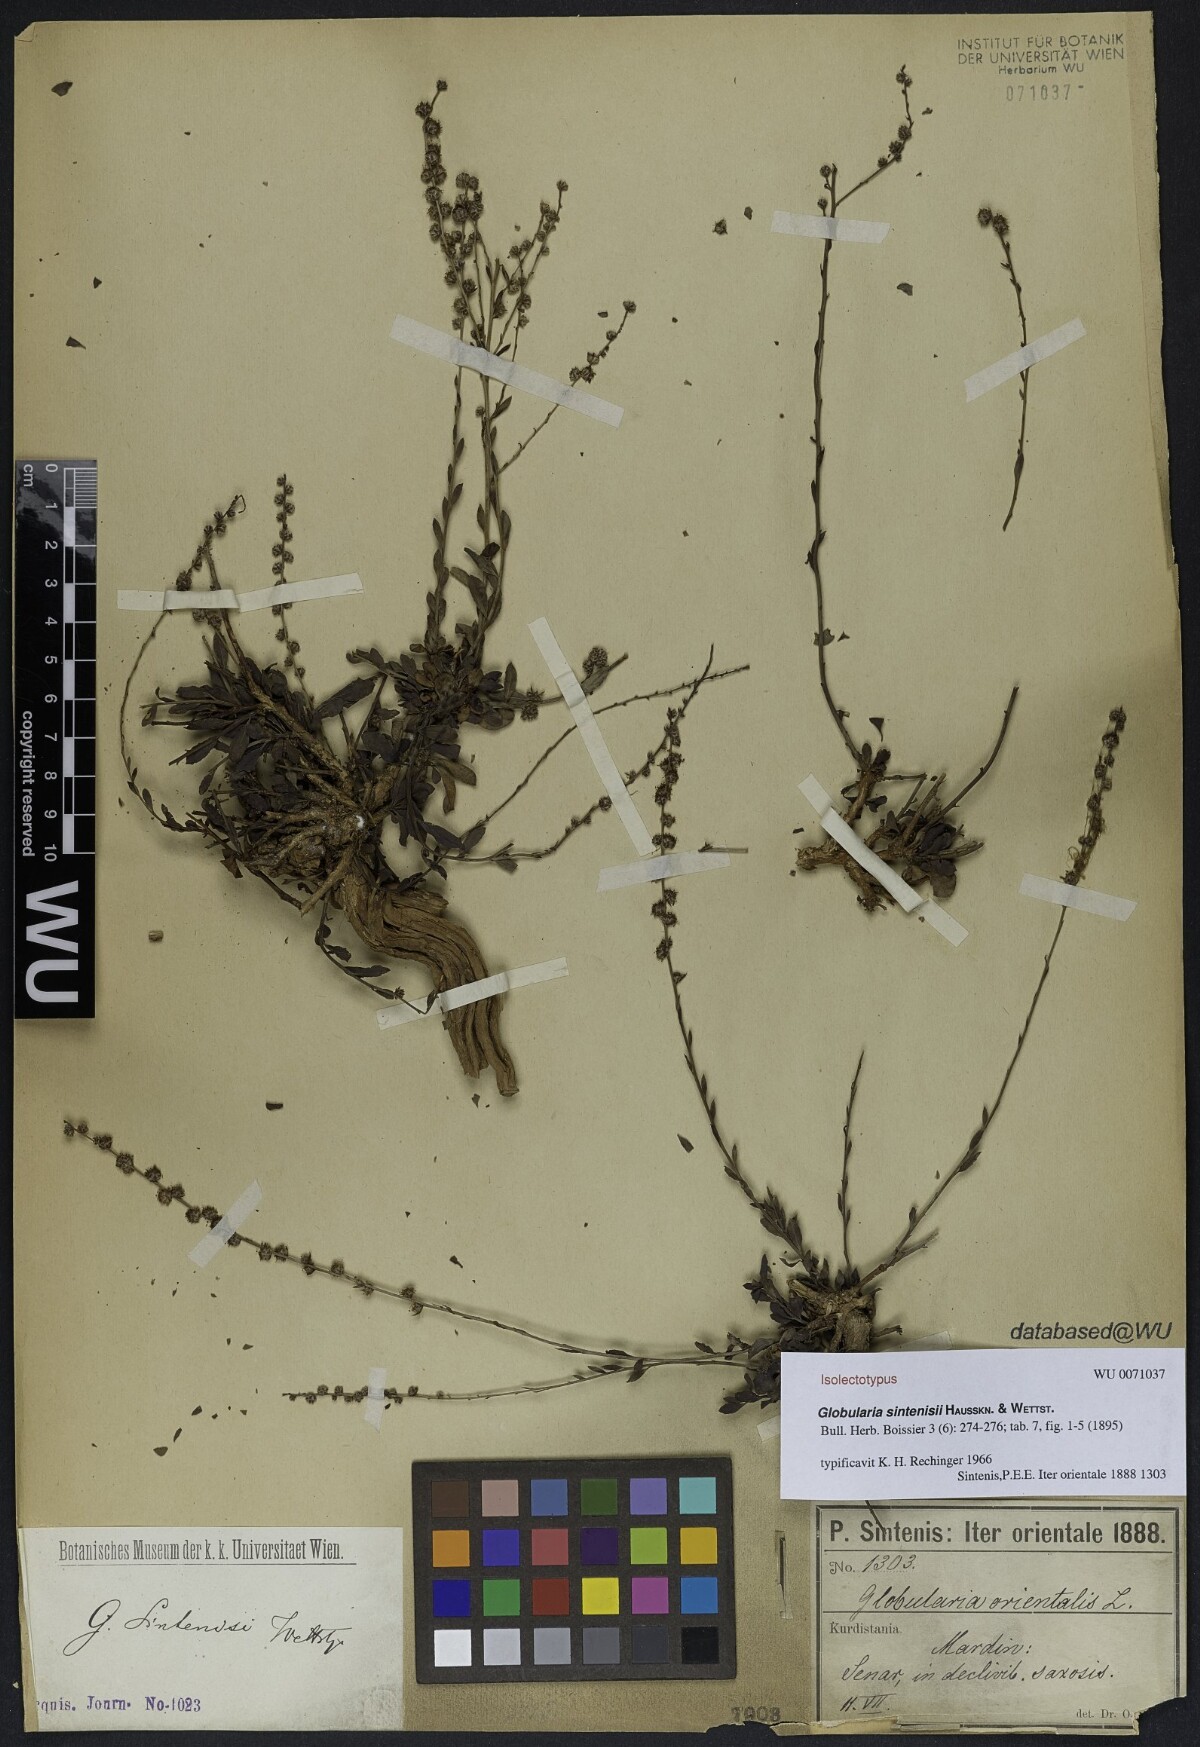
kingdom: Plantae
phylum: Tracheophyta
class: Magnoliopsida
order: Lamiales
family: Plantaginaceae
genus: Globularia
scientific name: Globularia sintenisii
